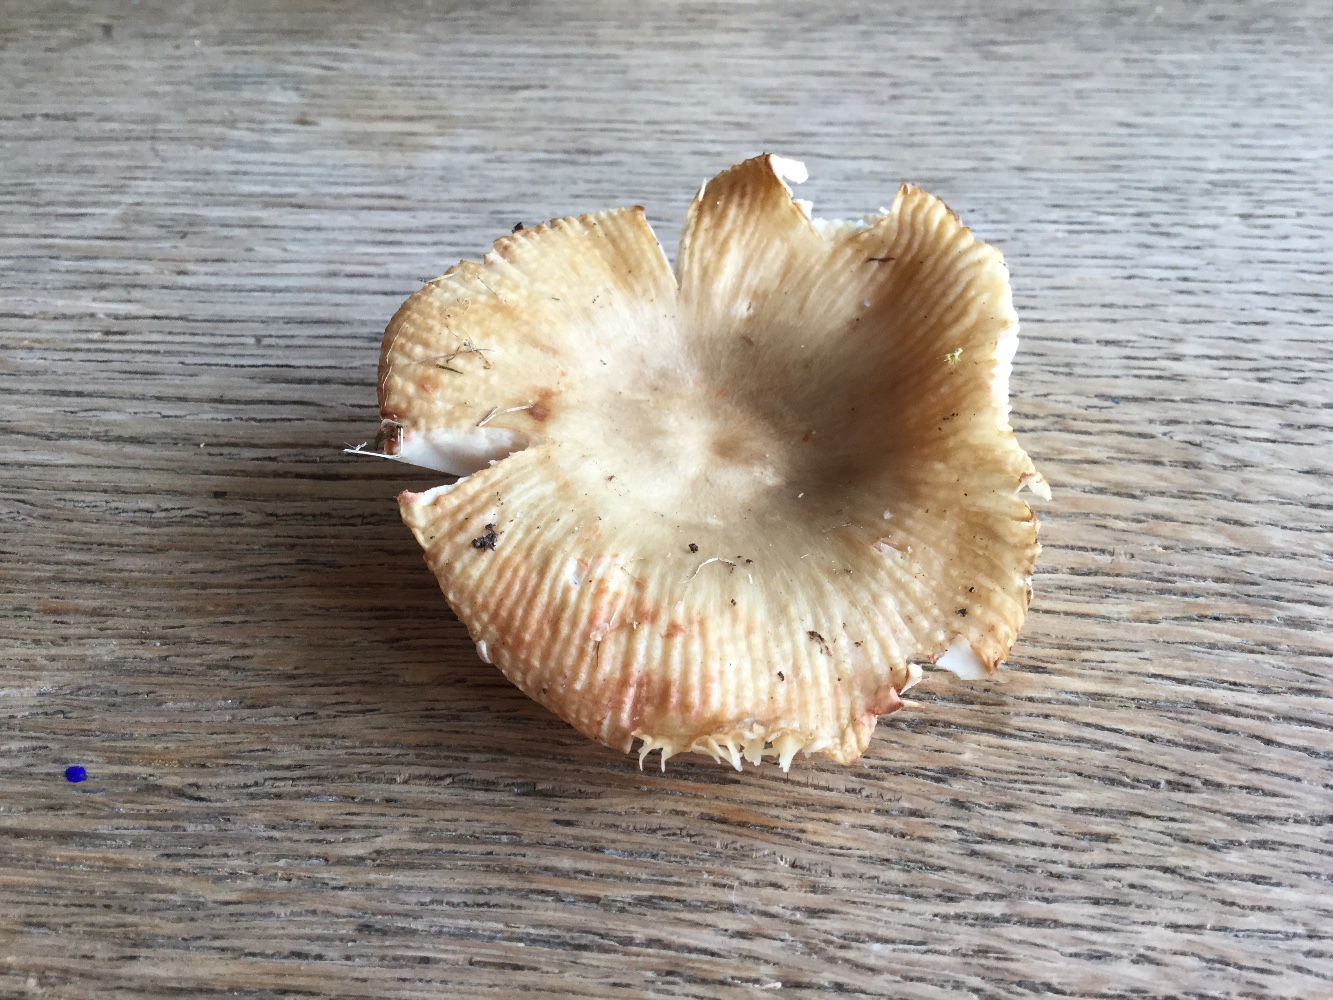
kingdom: Fungi
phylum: Basidiomycota
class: Agaricomycetes
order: Russulales
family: Russulaceae
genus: Russula
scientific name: Russula recondita
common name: mild kam-skørhat
